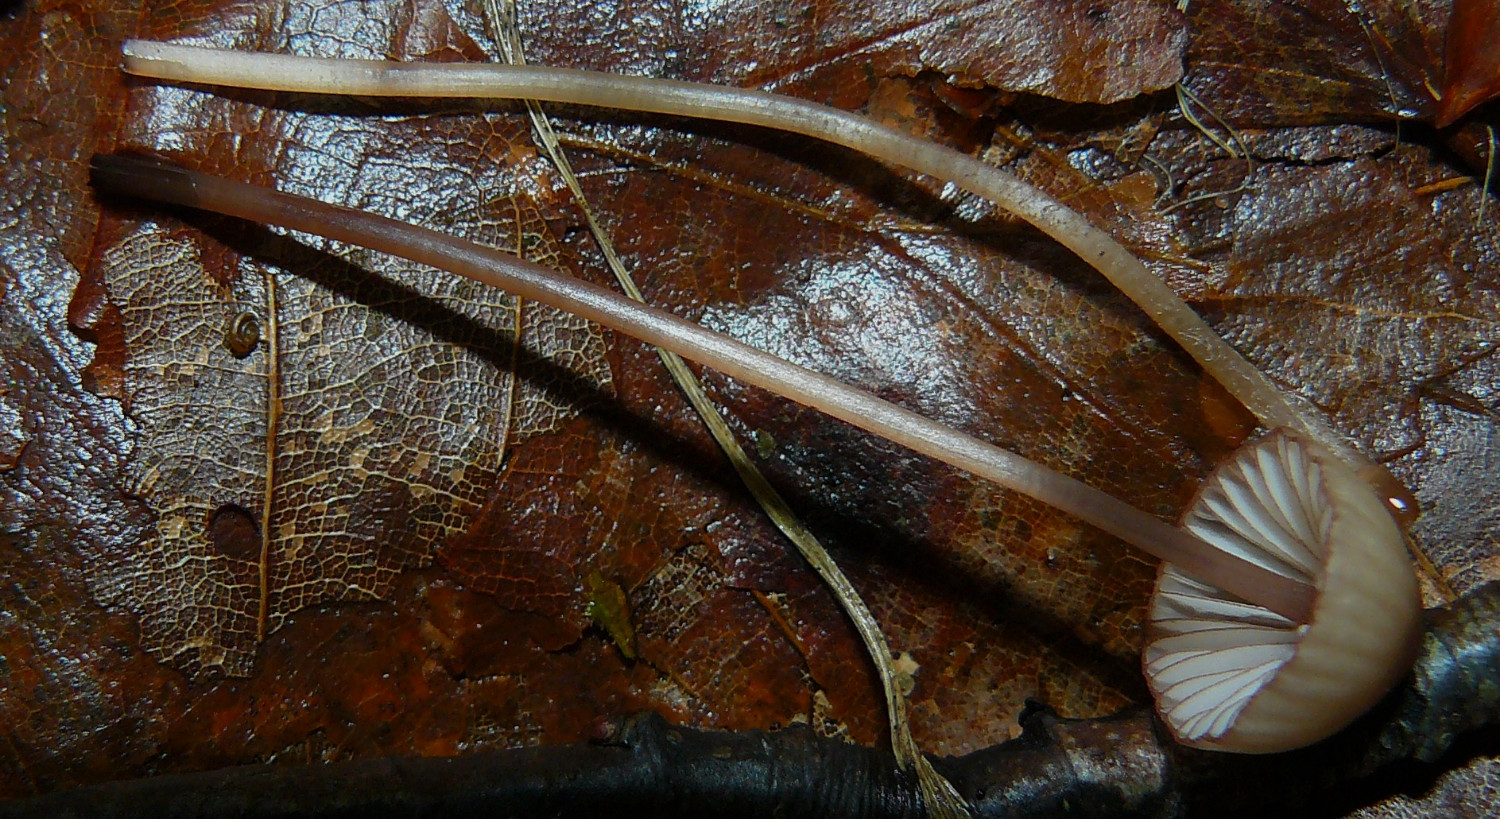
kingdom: Fungi
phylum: Basidiomycota
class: Agaricomycetes
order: Agaricales
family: Mycenaceae
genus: Mycena
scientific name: Mycena sanguinolenta
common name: rødmælket huesvamp
